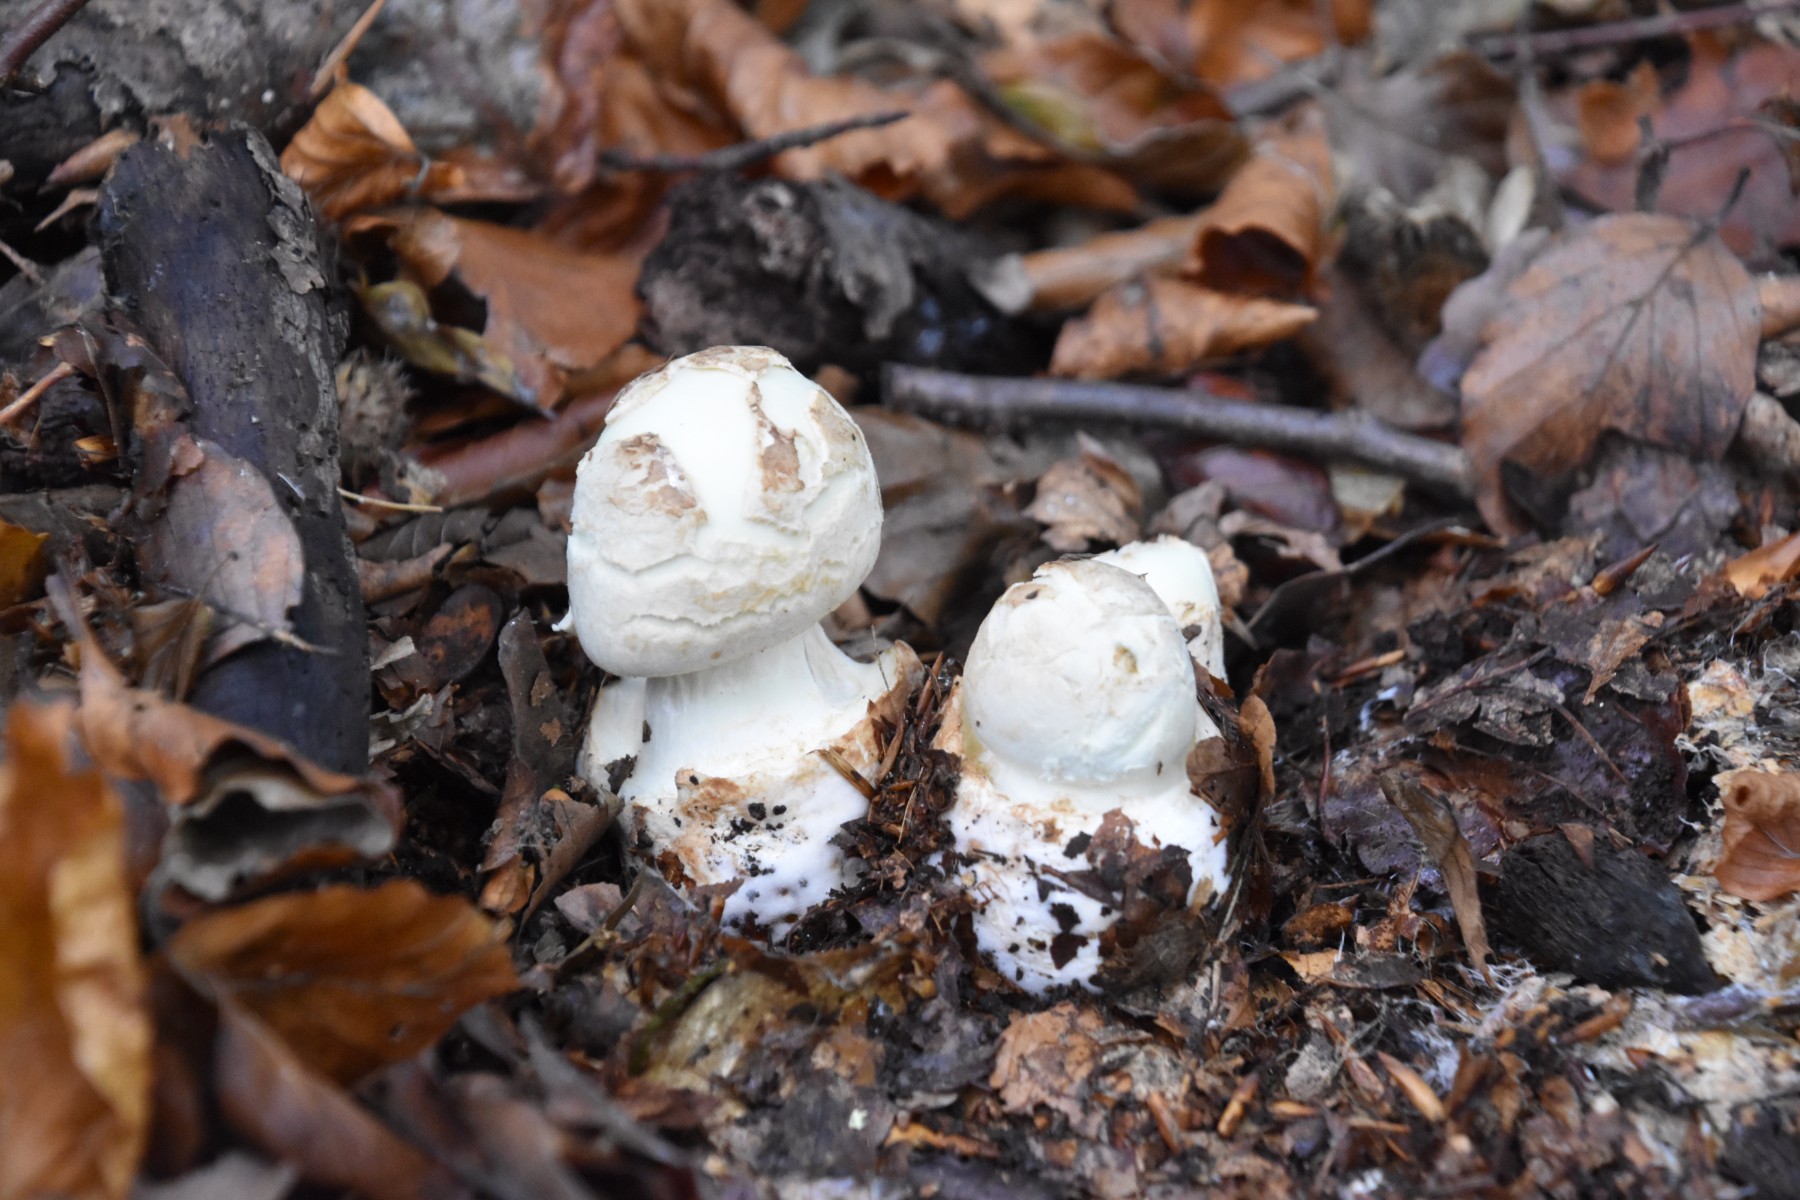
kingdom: Fungi
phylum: Basidiomycota
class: Agaricomycetes
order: Agaricales
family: Amanitaceae
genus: Amanita
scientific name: Amanita citrina
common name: kugleknoldet fluesvamp
